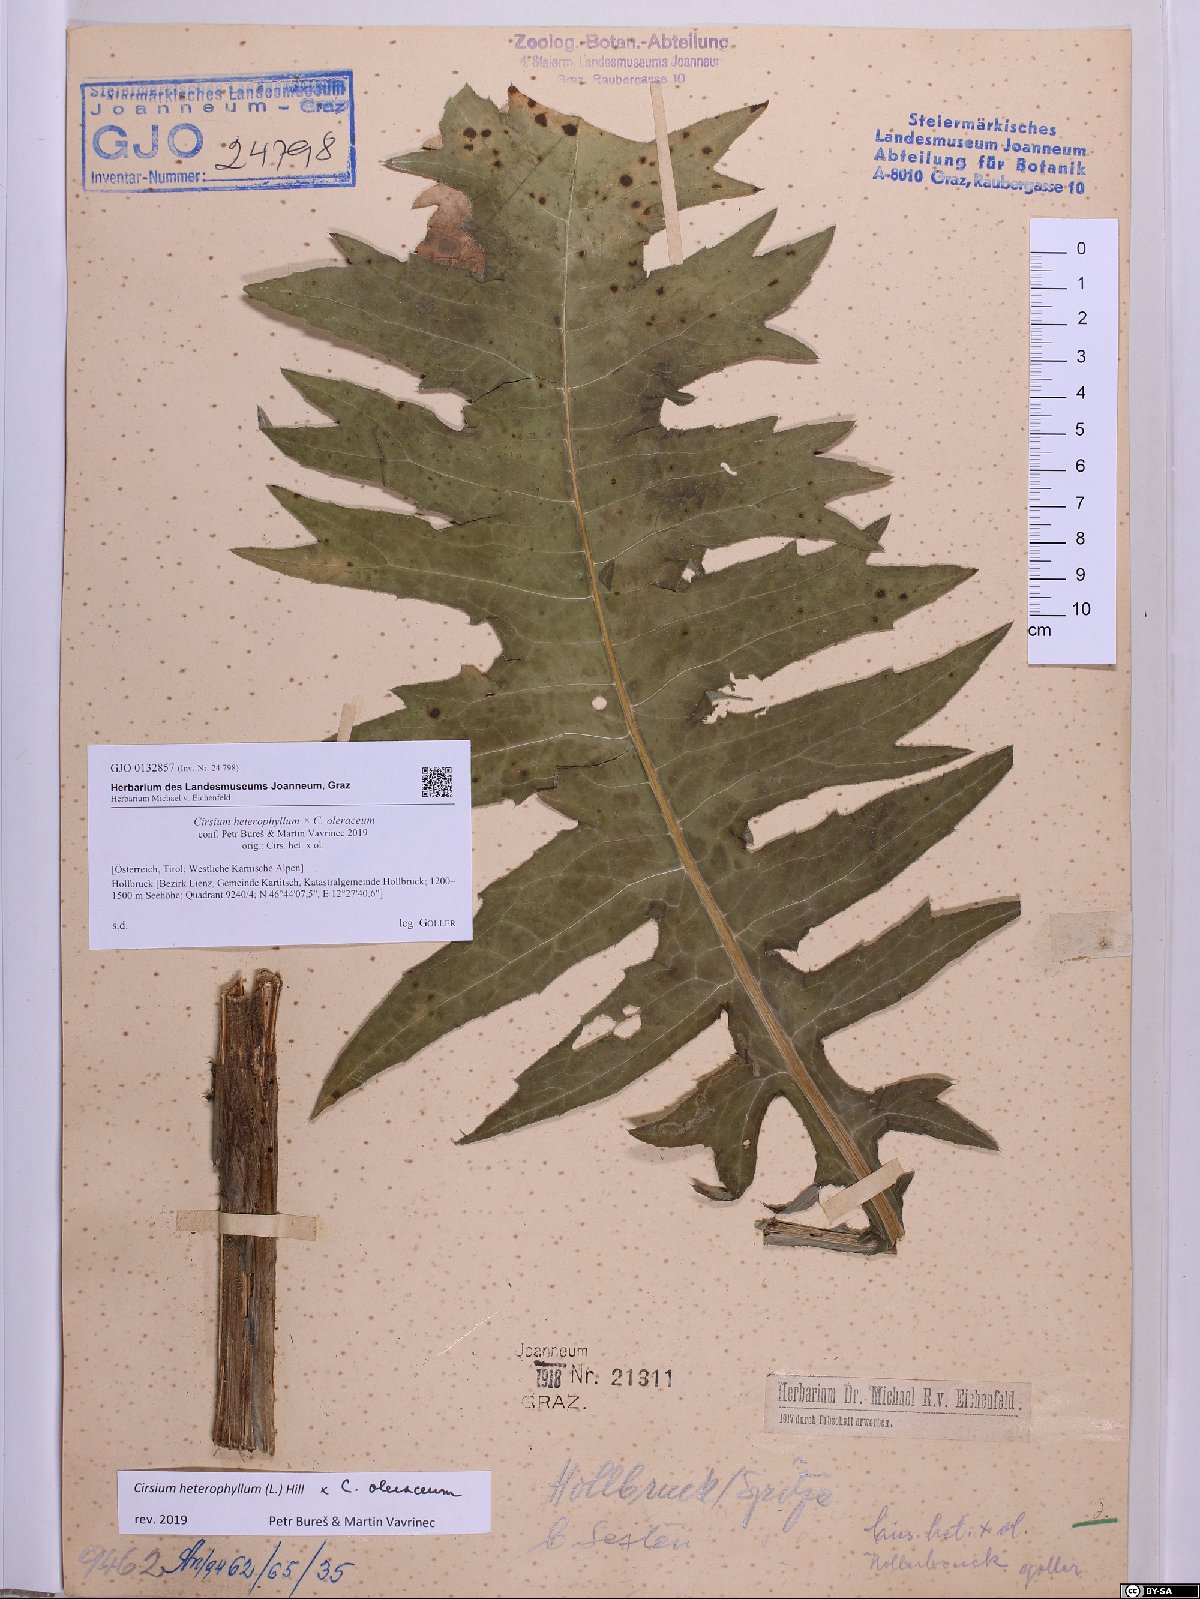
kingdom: Plantae
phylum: Tracheophyta
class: Magnoliopsida
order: Asterales
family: Asteraceae
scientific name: Asteraceae
